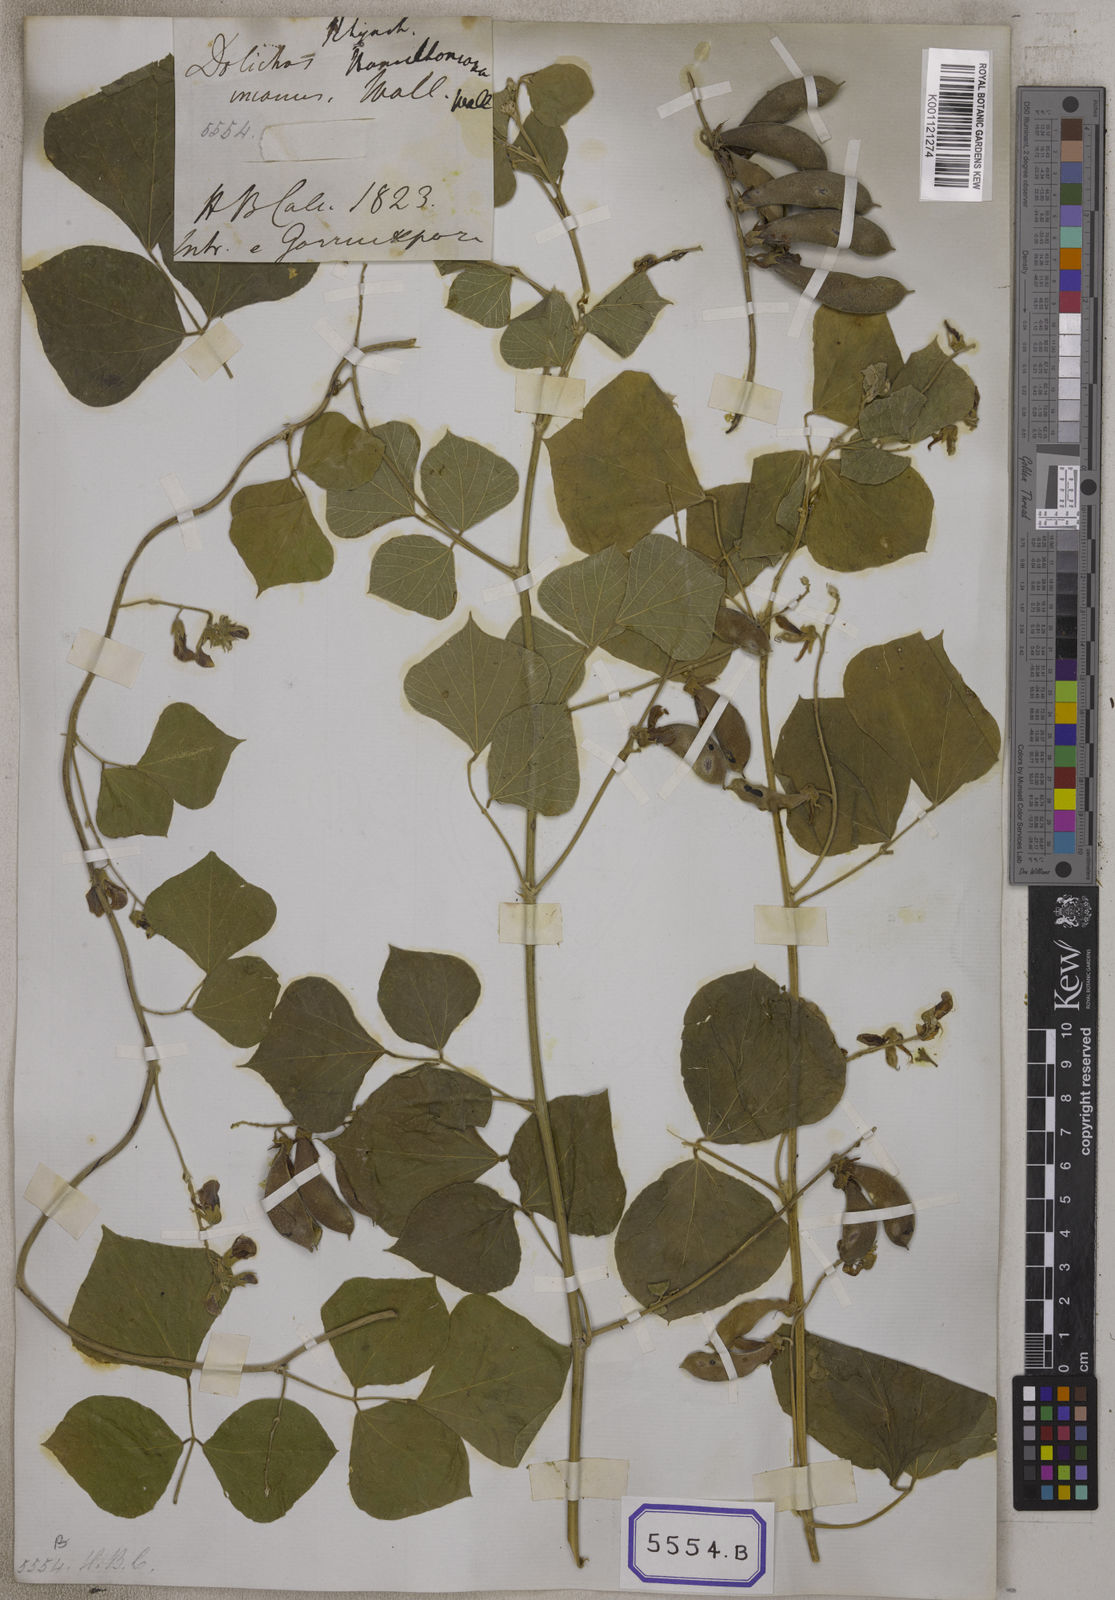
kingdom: Plantae
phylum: Tracheophyta
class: Magnoliopsida
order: Fabales
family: Fabaceae
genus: Rhynchosia
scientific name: Rhynchosia bracteata
